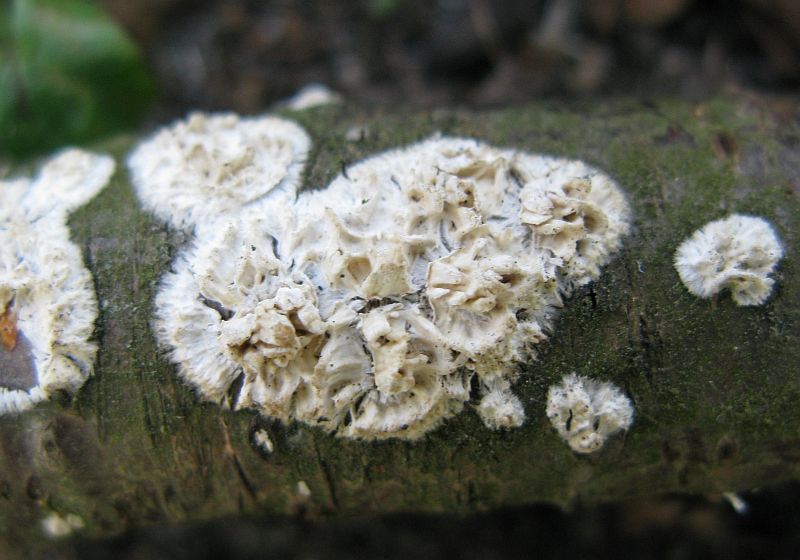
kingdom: Fungi
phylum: Basidiomycota
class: Agaricomycetes
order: Hymenochaetales
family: Schizoporaceae
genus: Xylodon
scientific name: Xylodon radula
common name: grovtandet kalkskind
